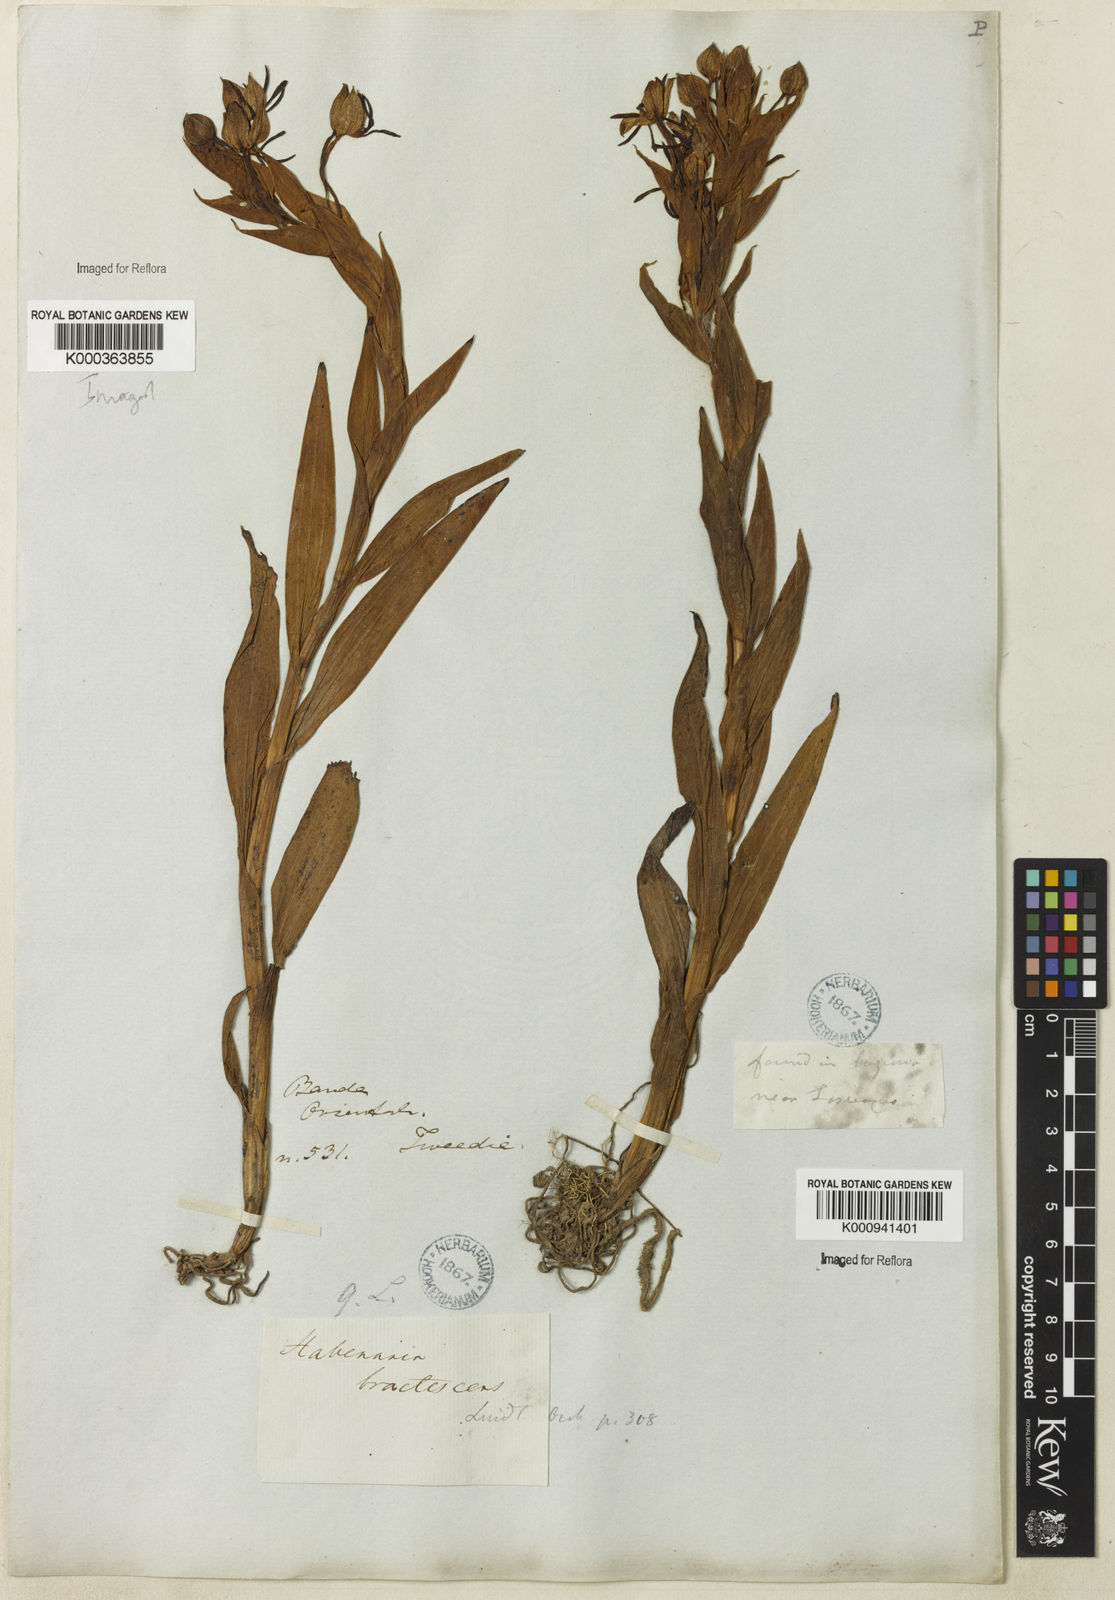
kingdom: Plantae
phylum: Tracheophyta
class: Liliopsida
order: Asparagales
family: Orchidaceae
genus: Habenaria
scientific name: Habenaria bractescens
